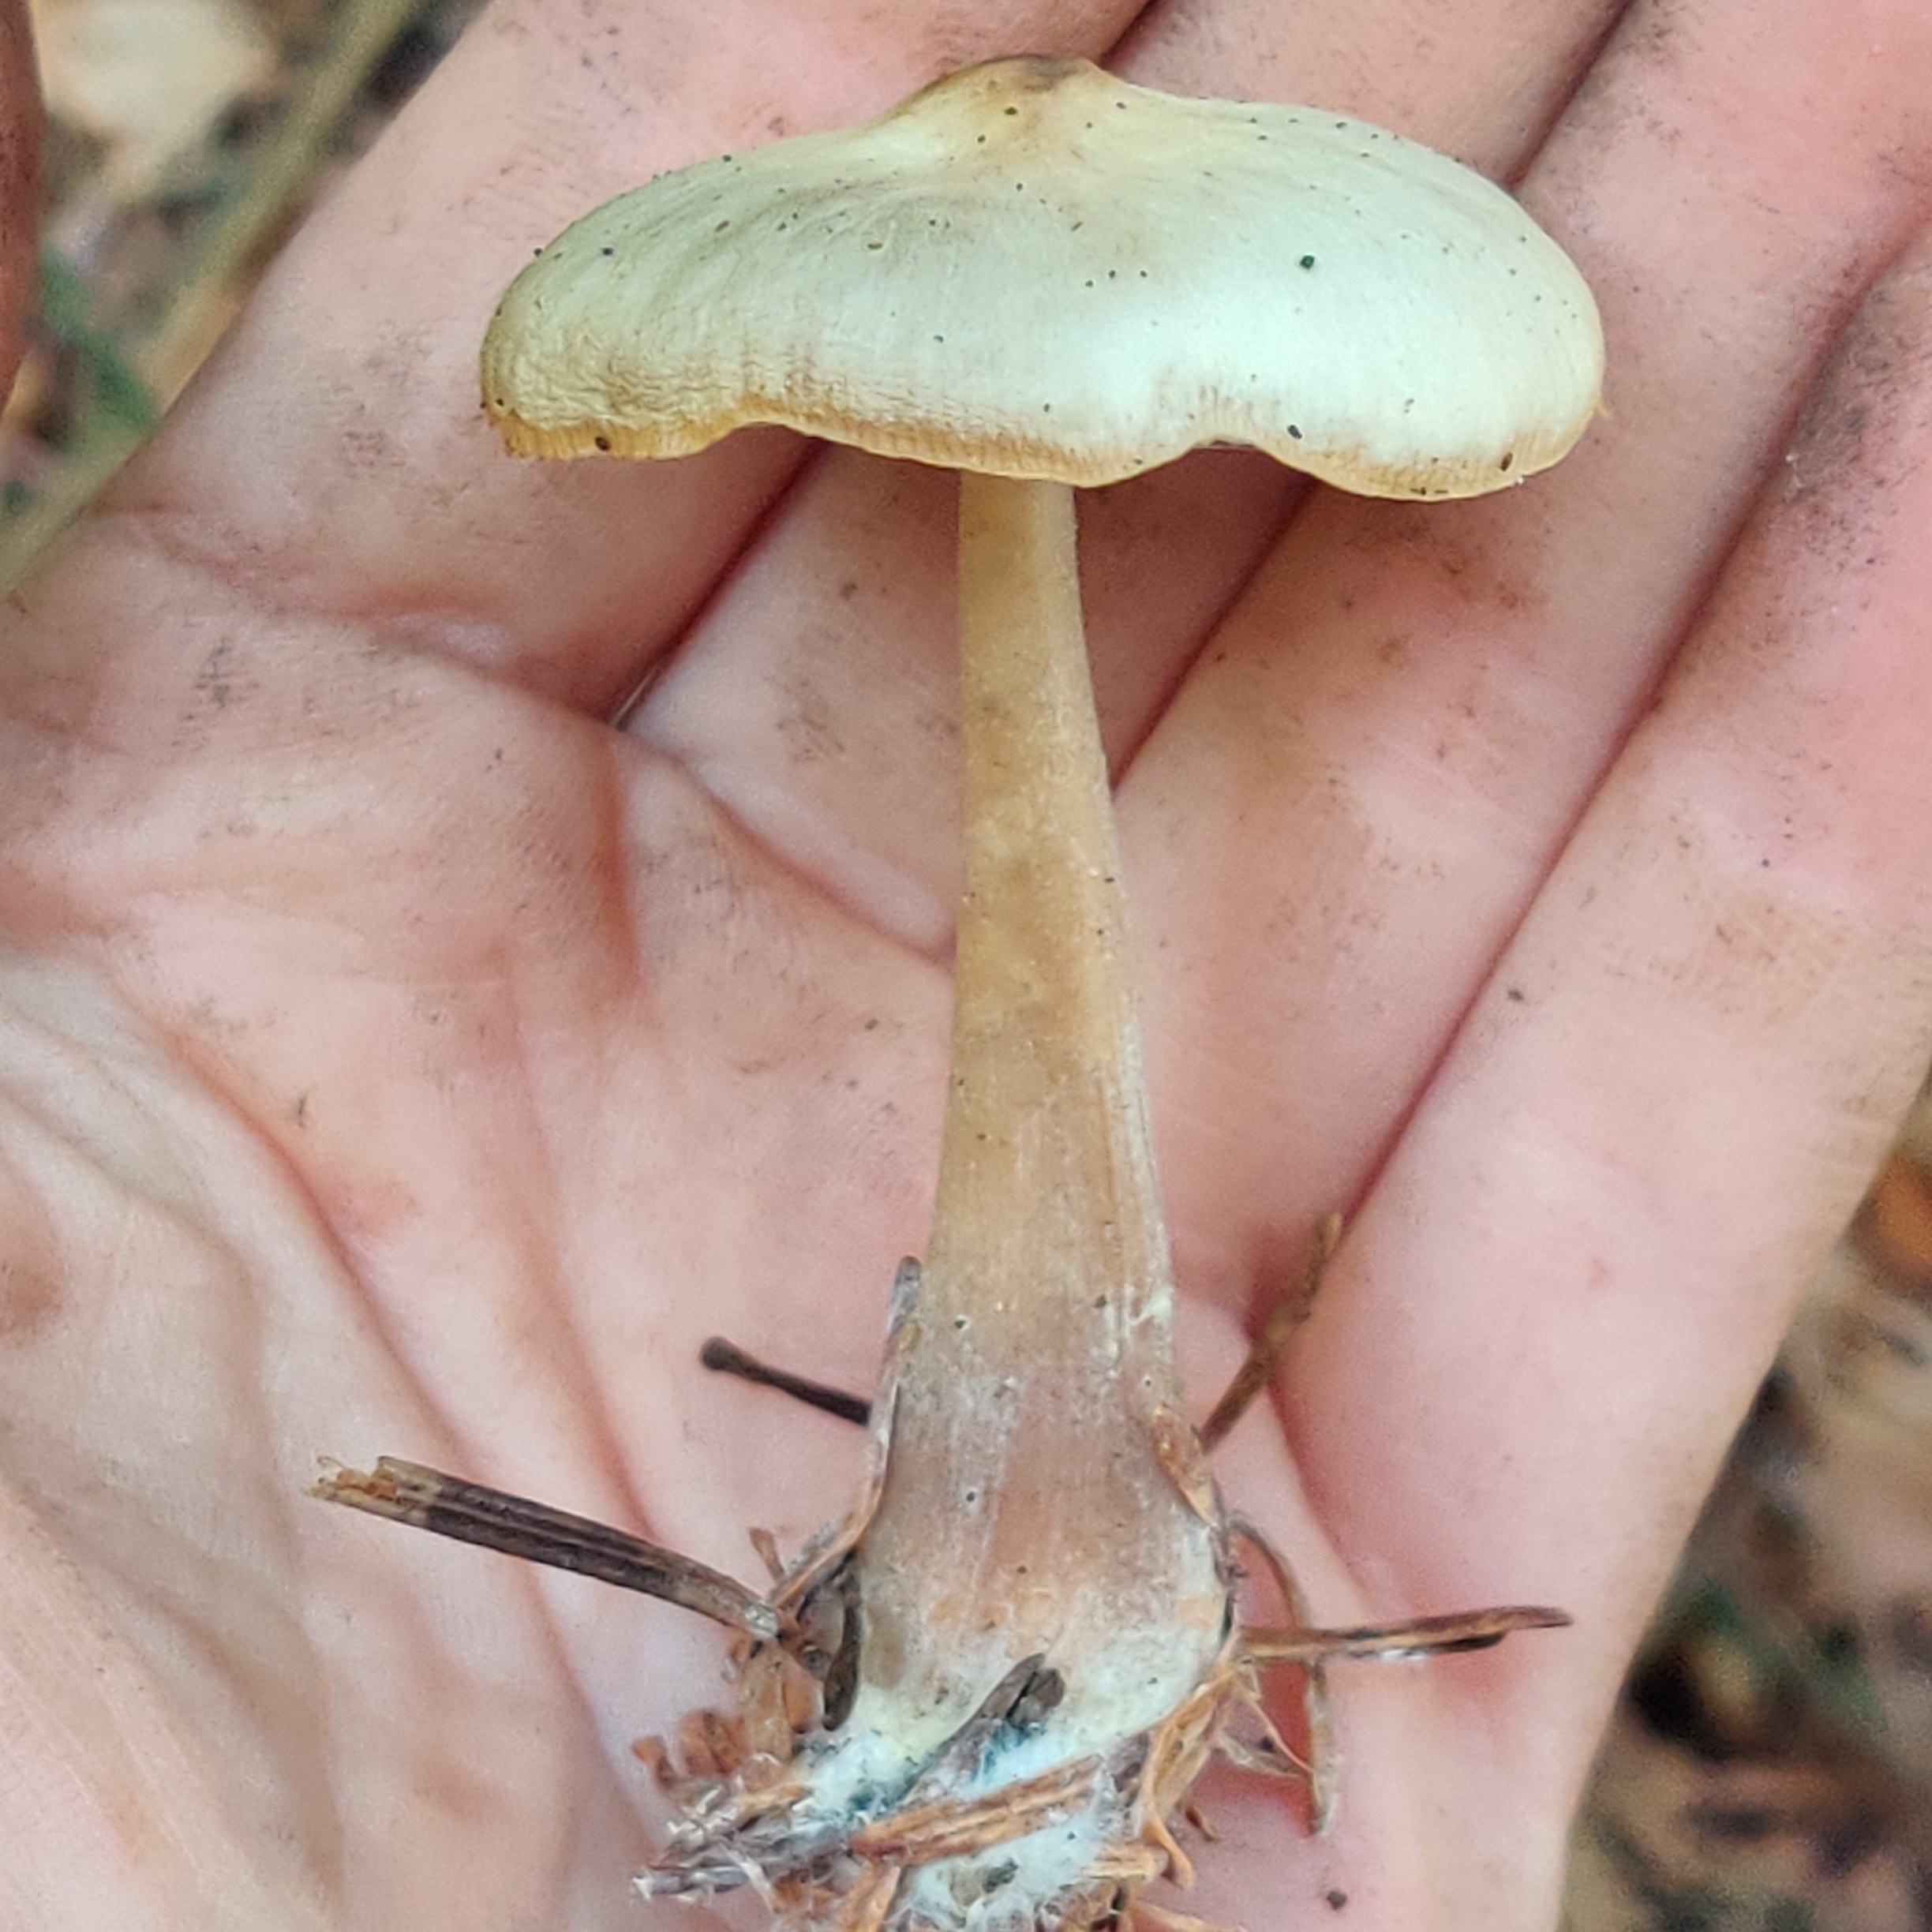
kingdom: Fungi
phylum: Basidiomycota
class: Agaricomycetes
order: Agaricales
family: Omphalotaceae
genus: Rhodocollybia
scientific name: Rhodocollybia asema
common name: horngrå fladhat
